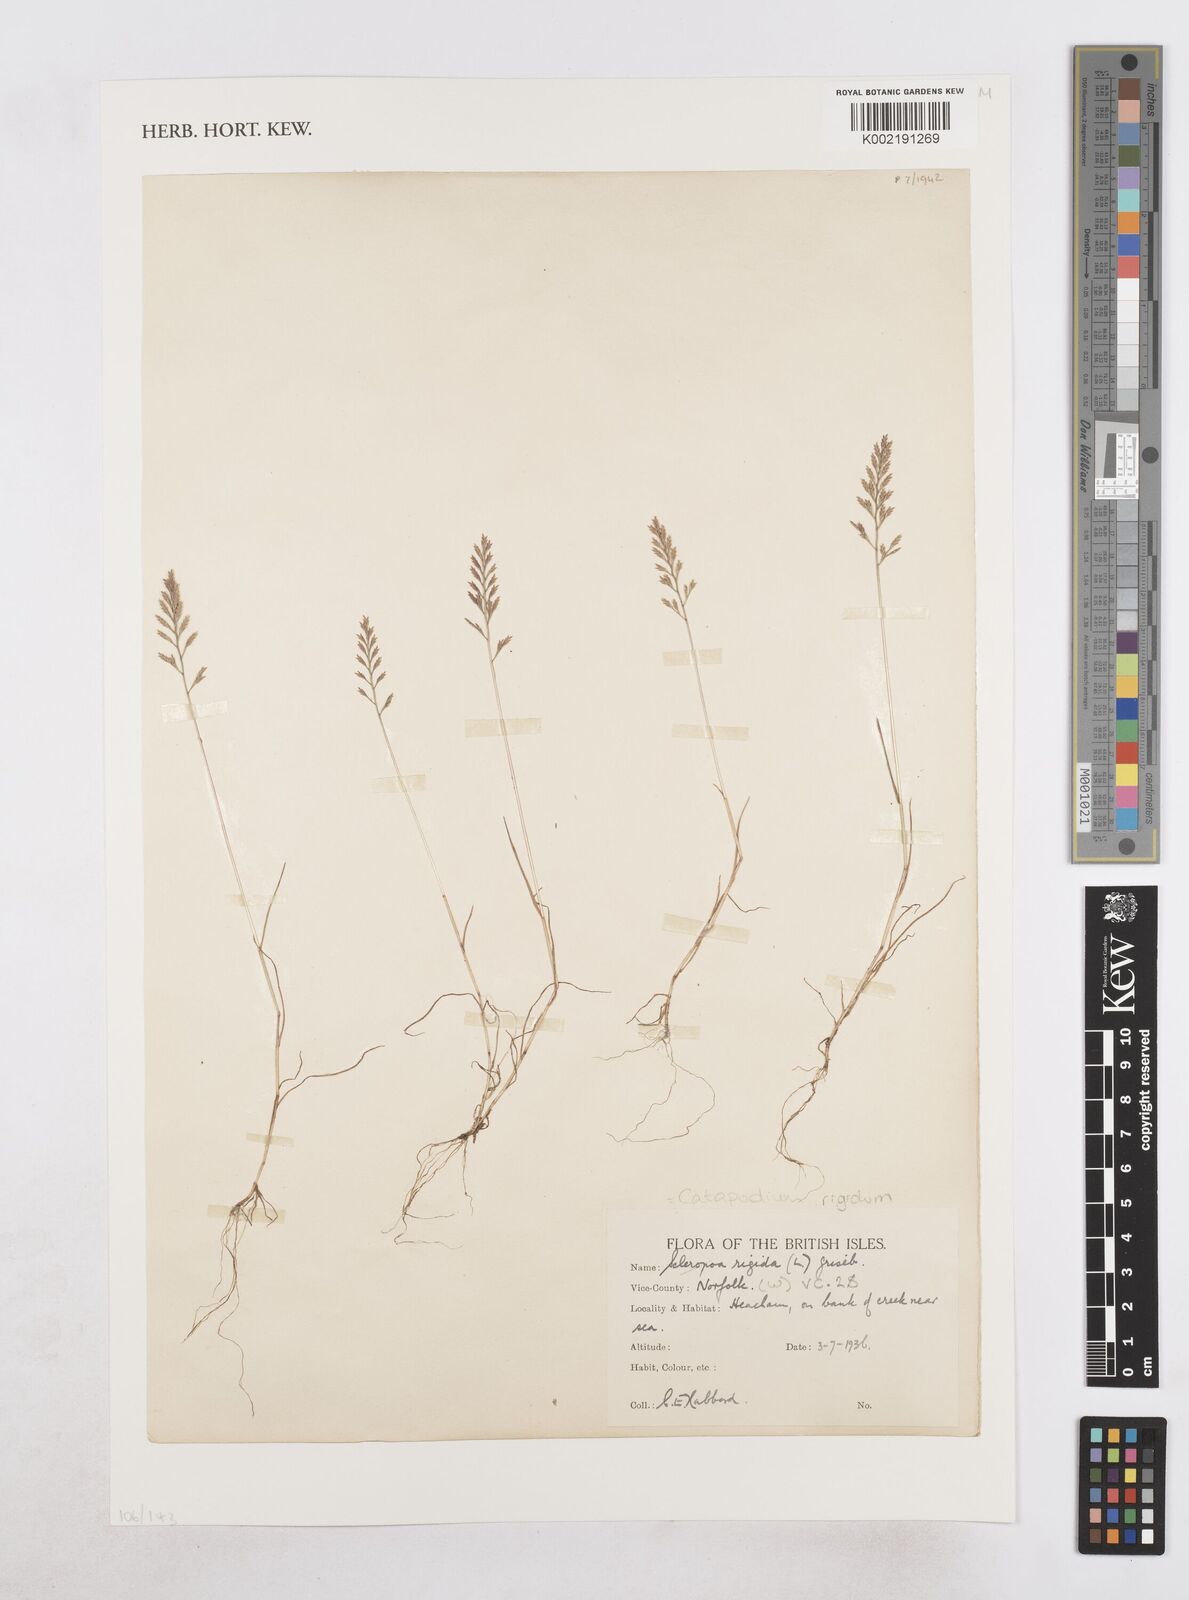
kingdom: Plantae
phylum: Tracheophyta
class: Liliopsida
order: Poales
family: Poaceae
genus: Catapodium
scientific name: Catapodium rigidum
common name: Fern-grass
